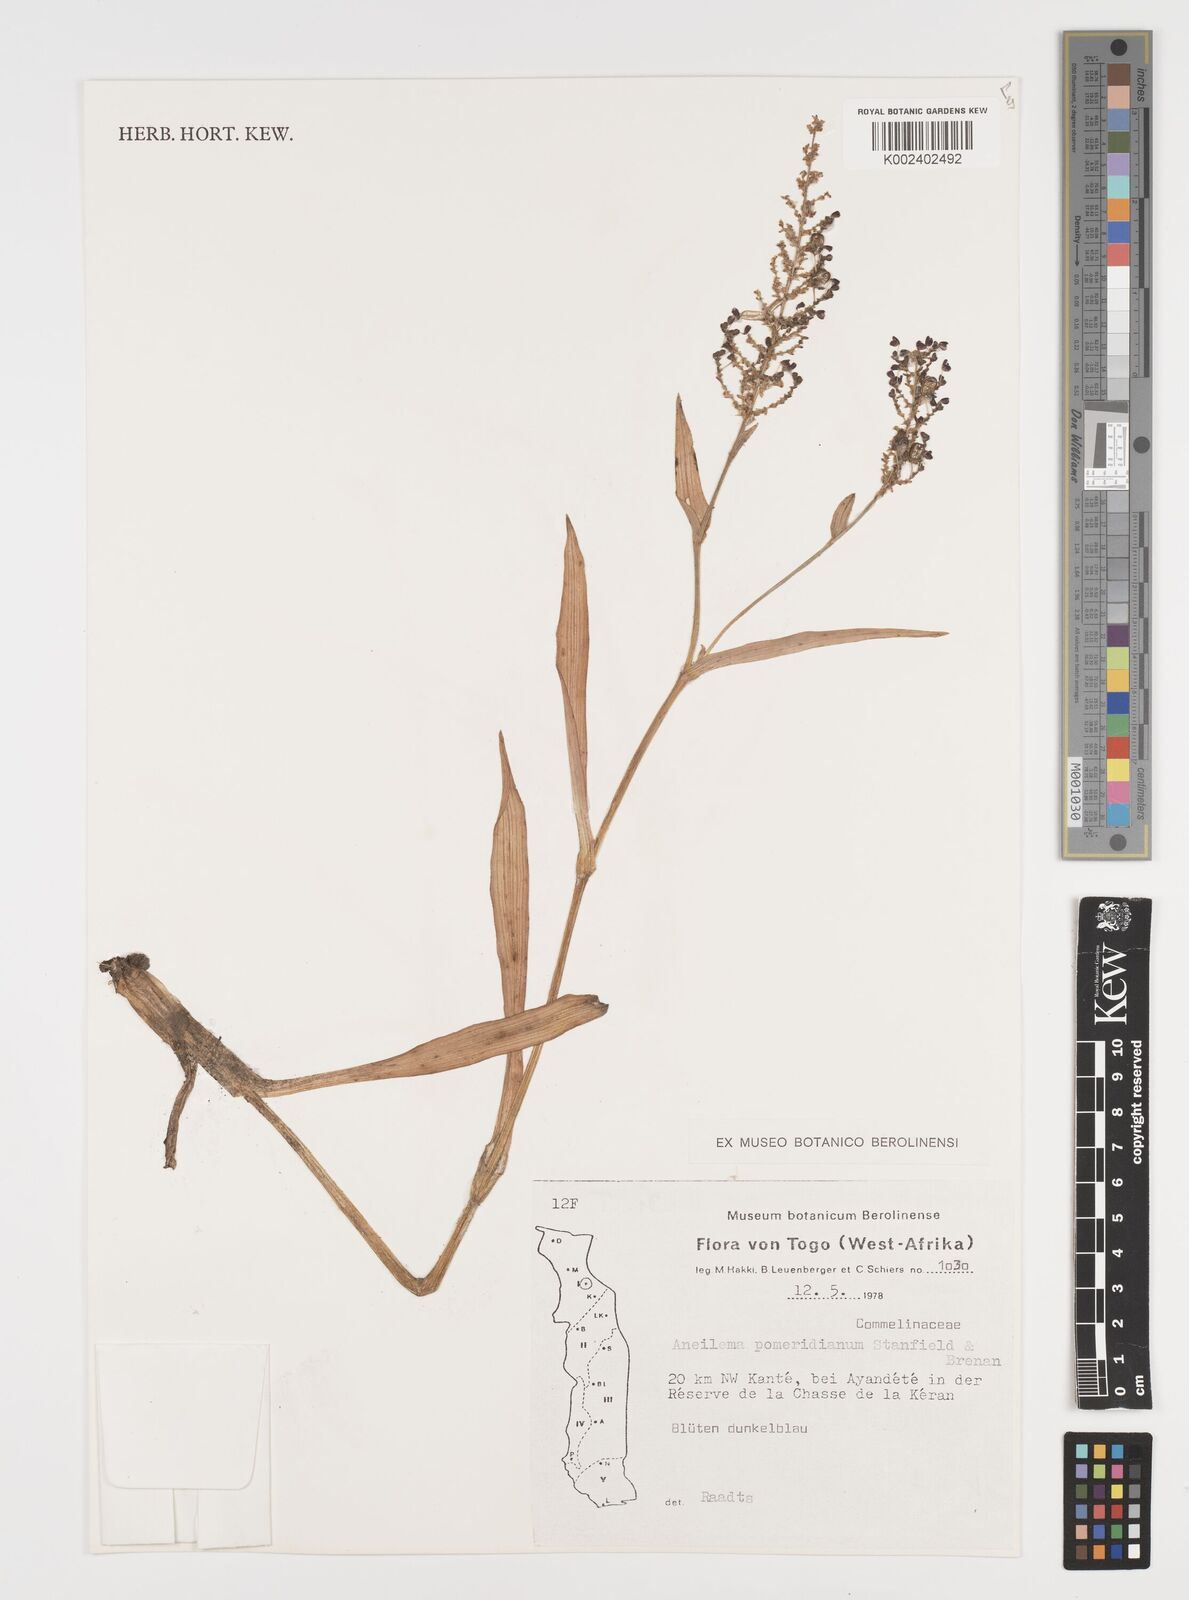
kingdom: Plantae
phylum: Tracheophyta
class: Liliopsida
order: Commelinales
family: Commelinaceae
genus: Aneilema
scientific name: Aneilema pomeridianum
